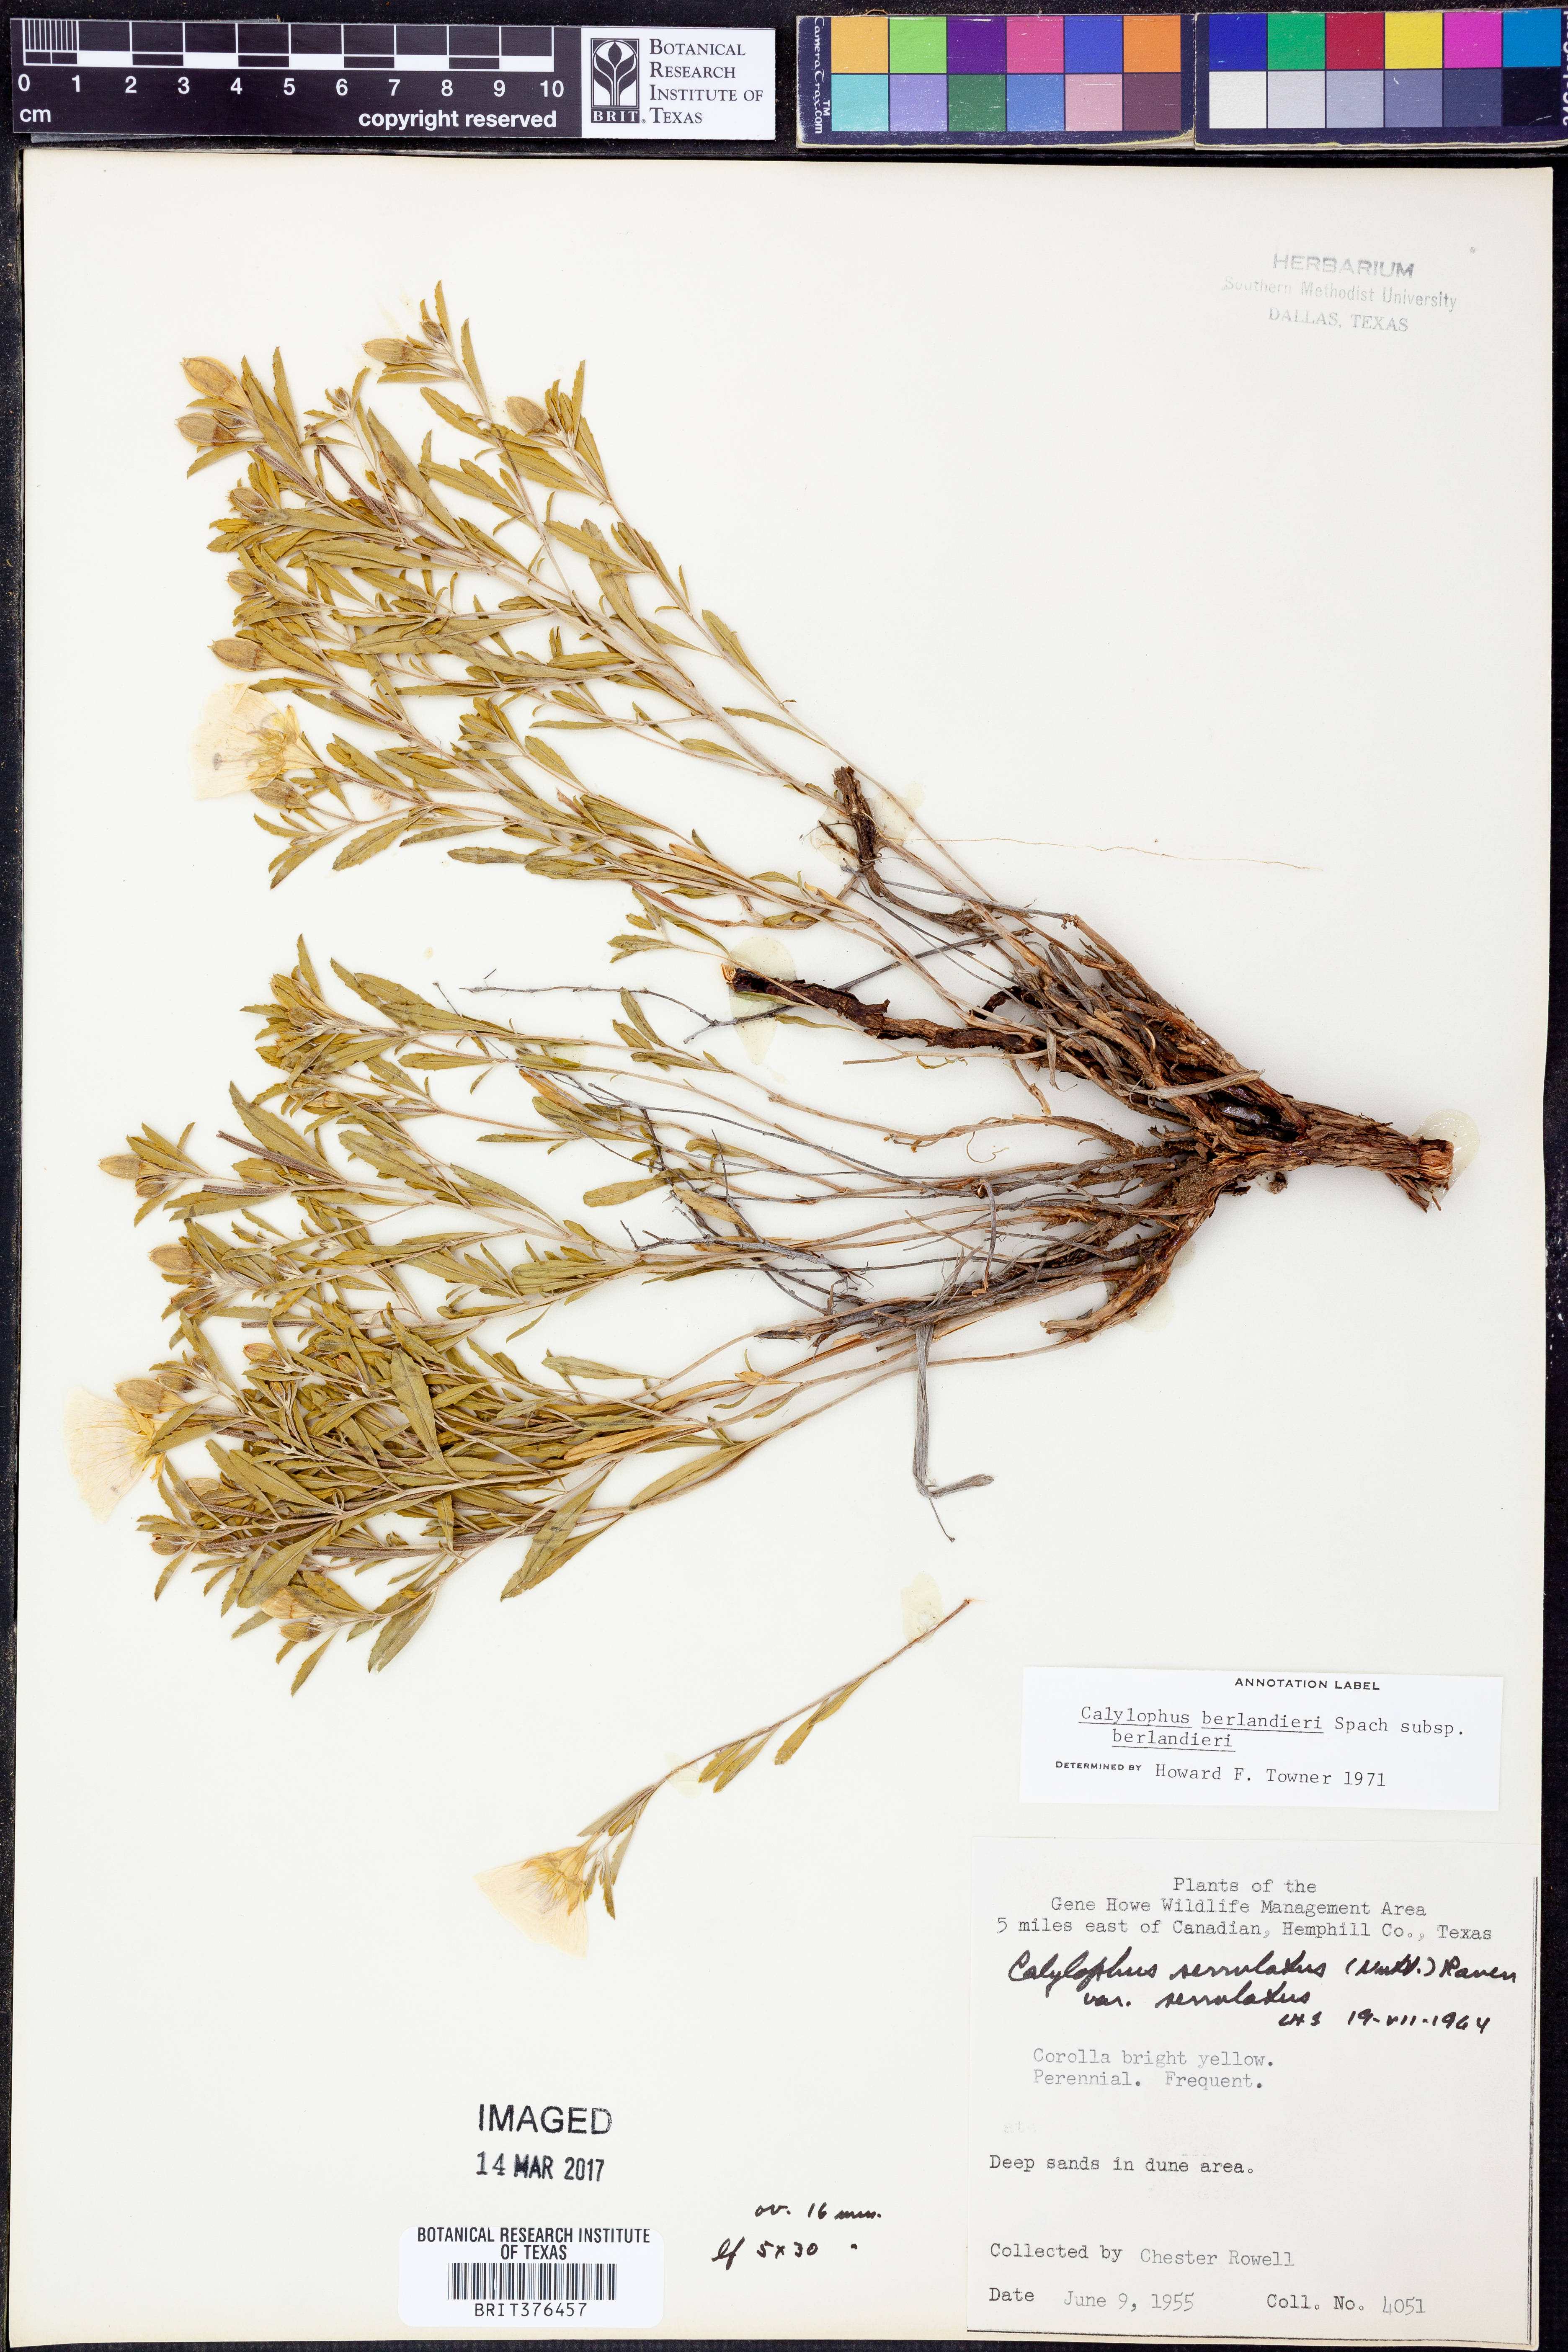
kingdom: Plantae
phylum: Tracheophyta
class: Magnoliopsida
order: Myrtales
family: Onagraceae
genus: Oenothera
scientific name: Oenothera capillifolia
